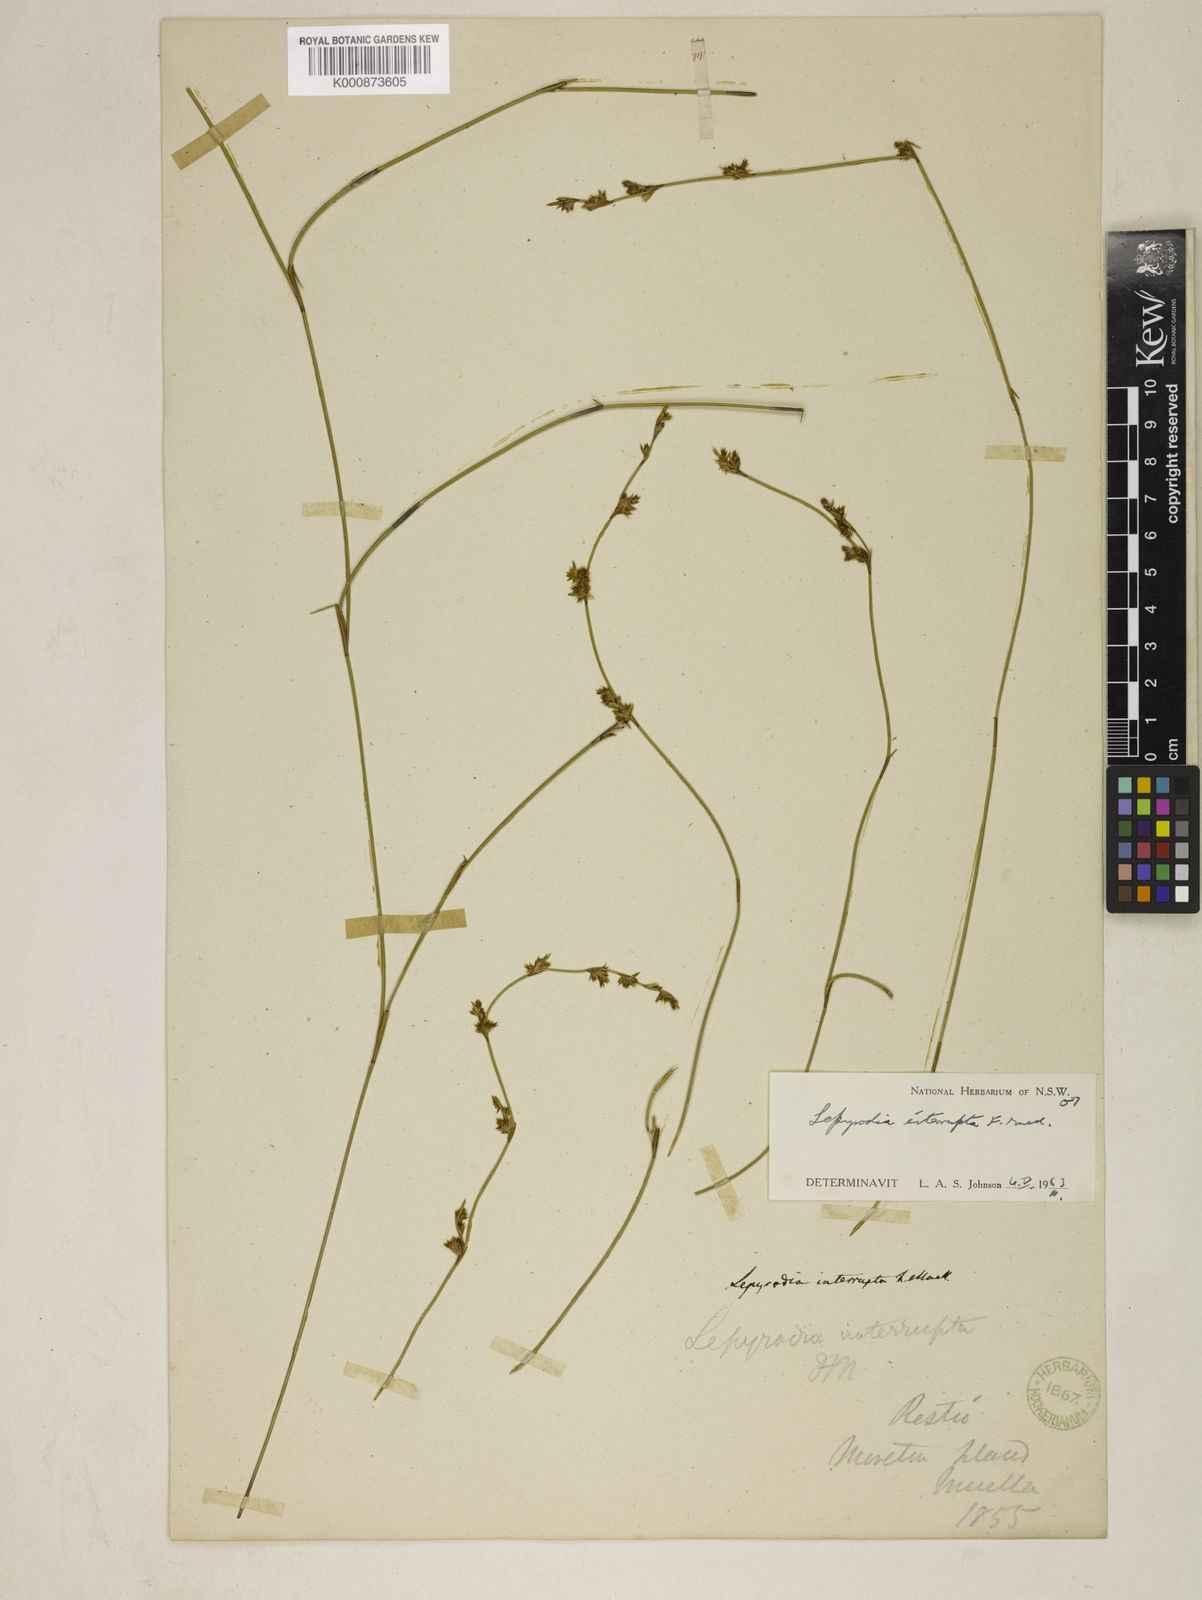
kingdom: Plantae
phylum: Tracheophyta
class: Liliopsida
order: Poales
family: Restionaceae
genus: Sporadanthus
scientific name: Sporadanthus interruptus
